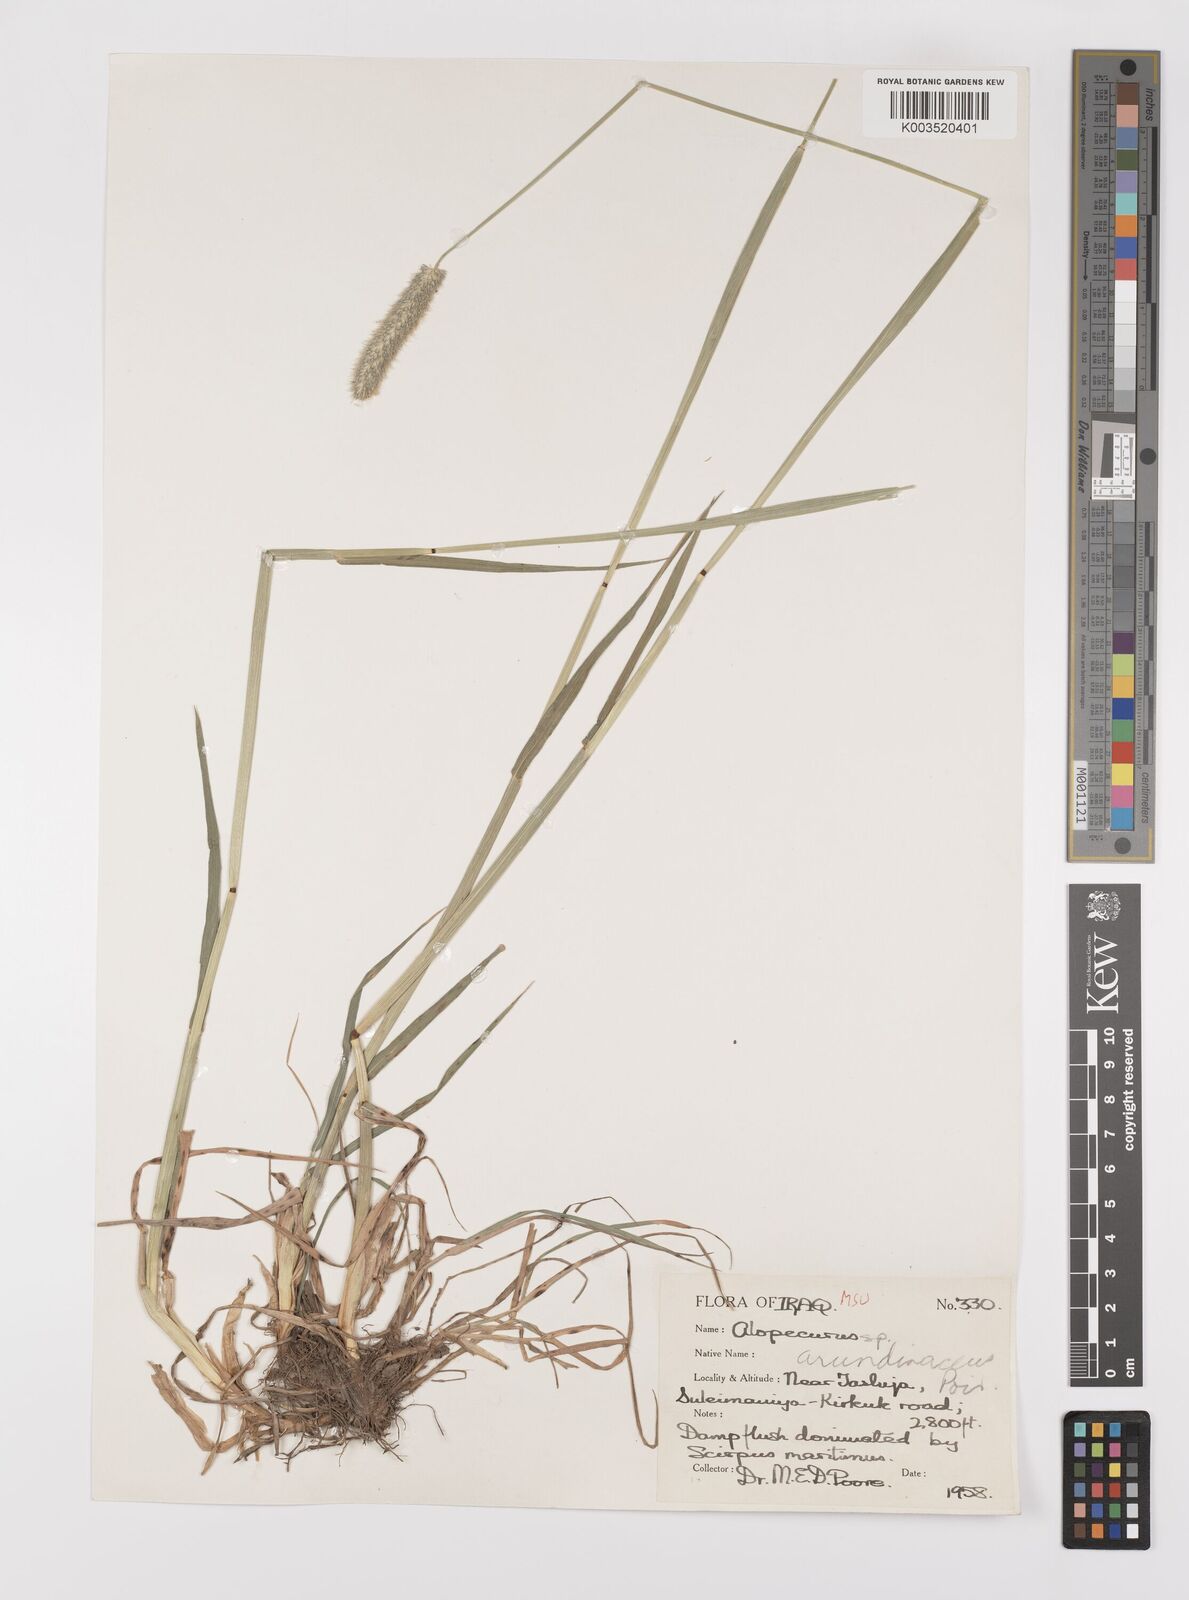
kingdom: Plantae
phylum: Tracheophyta
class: Liliopsida
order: Poales
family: Poaceae
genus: Alopecurus
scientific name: Alopecurus arundinaceus
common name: Creeping meadow foxtail
